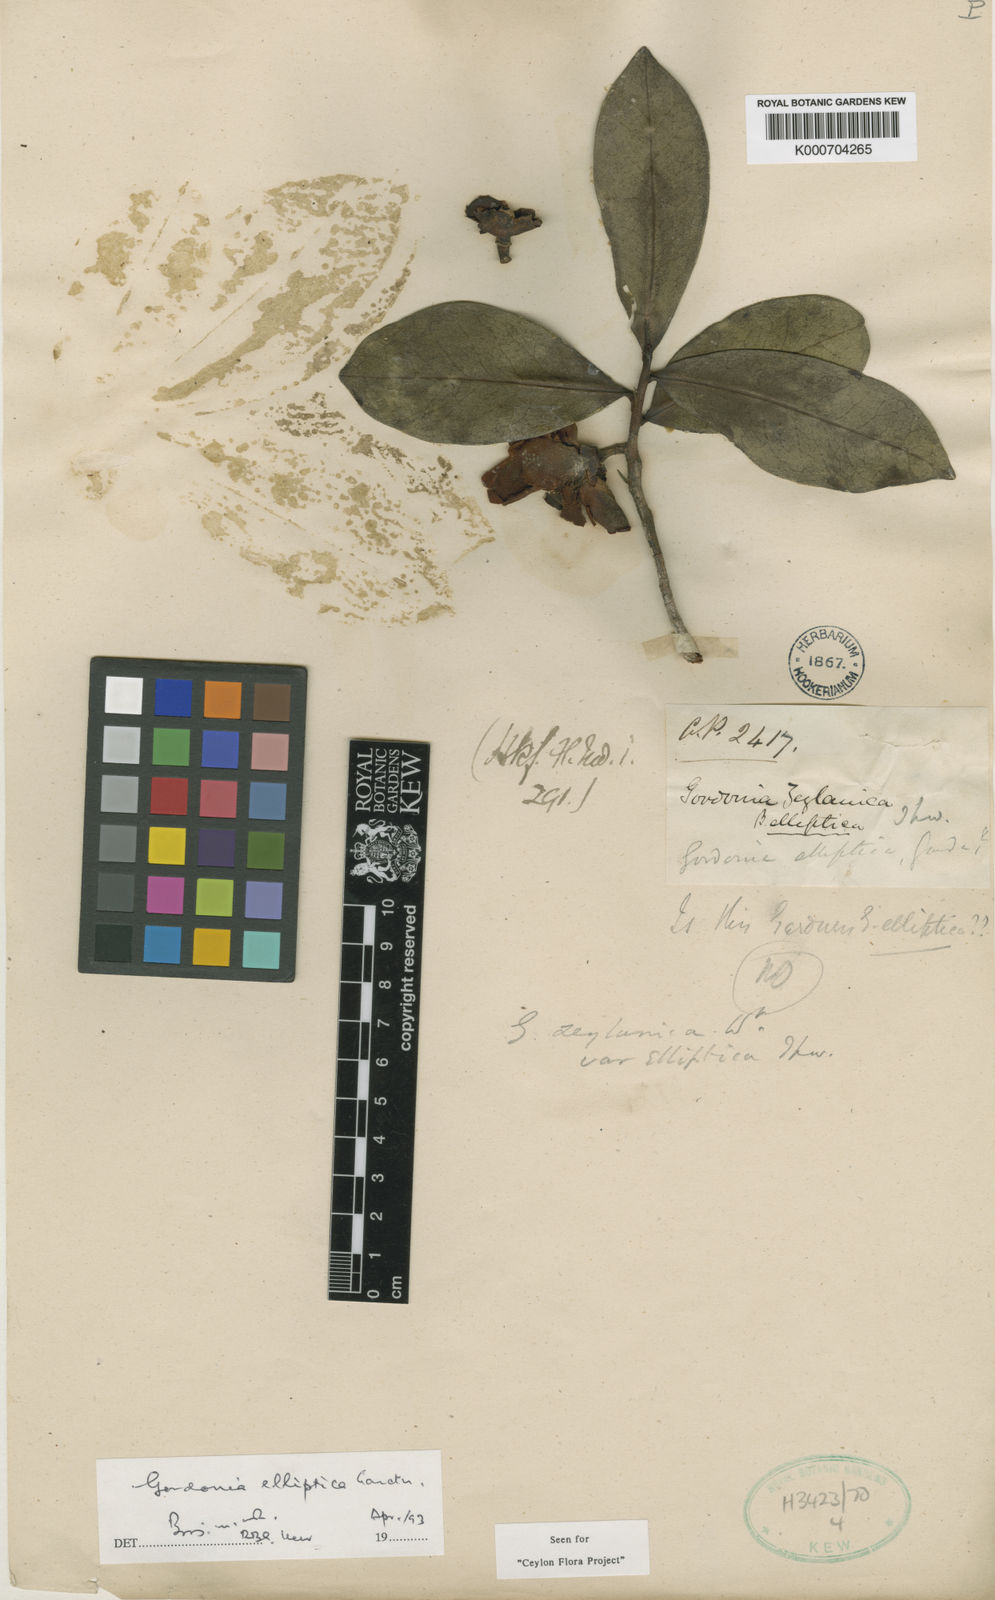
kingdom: Plantae
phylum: Tracheophyta
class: Magnoliopsida
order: Ericales
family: Theaceae
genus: Polyspora
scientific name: Polyspora elliptica
